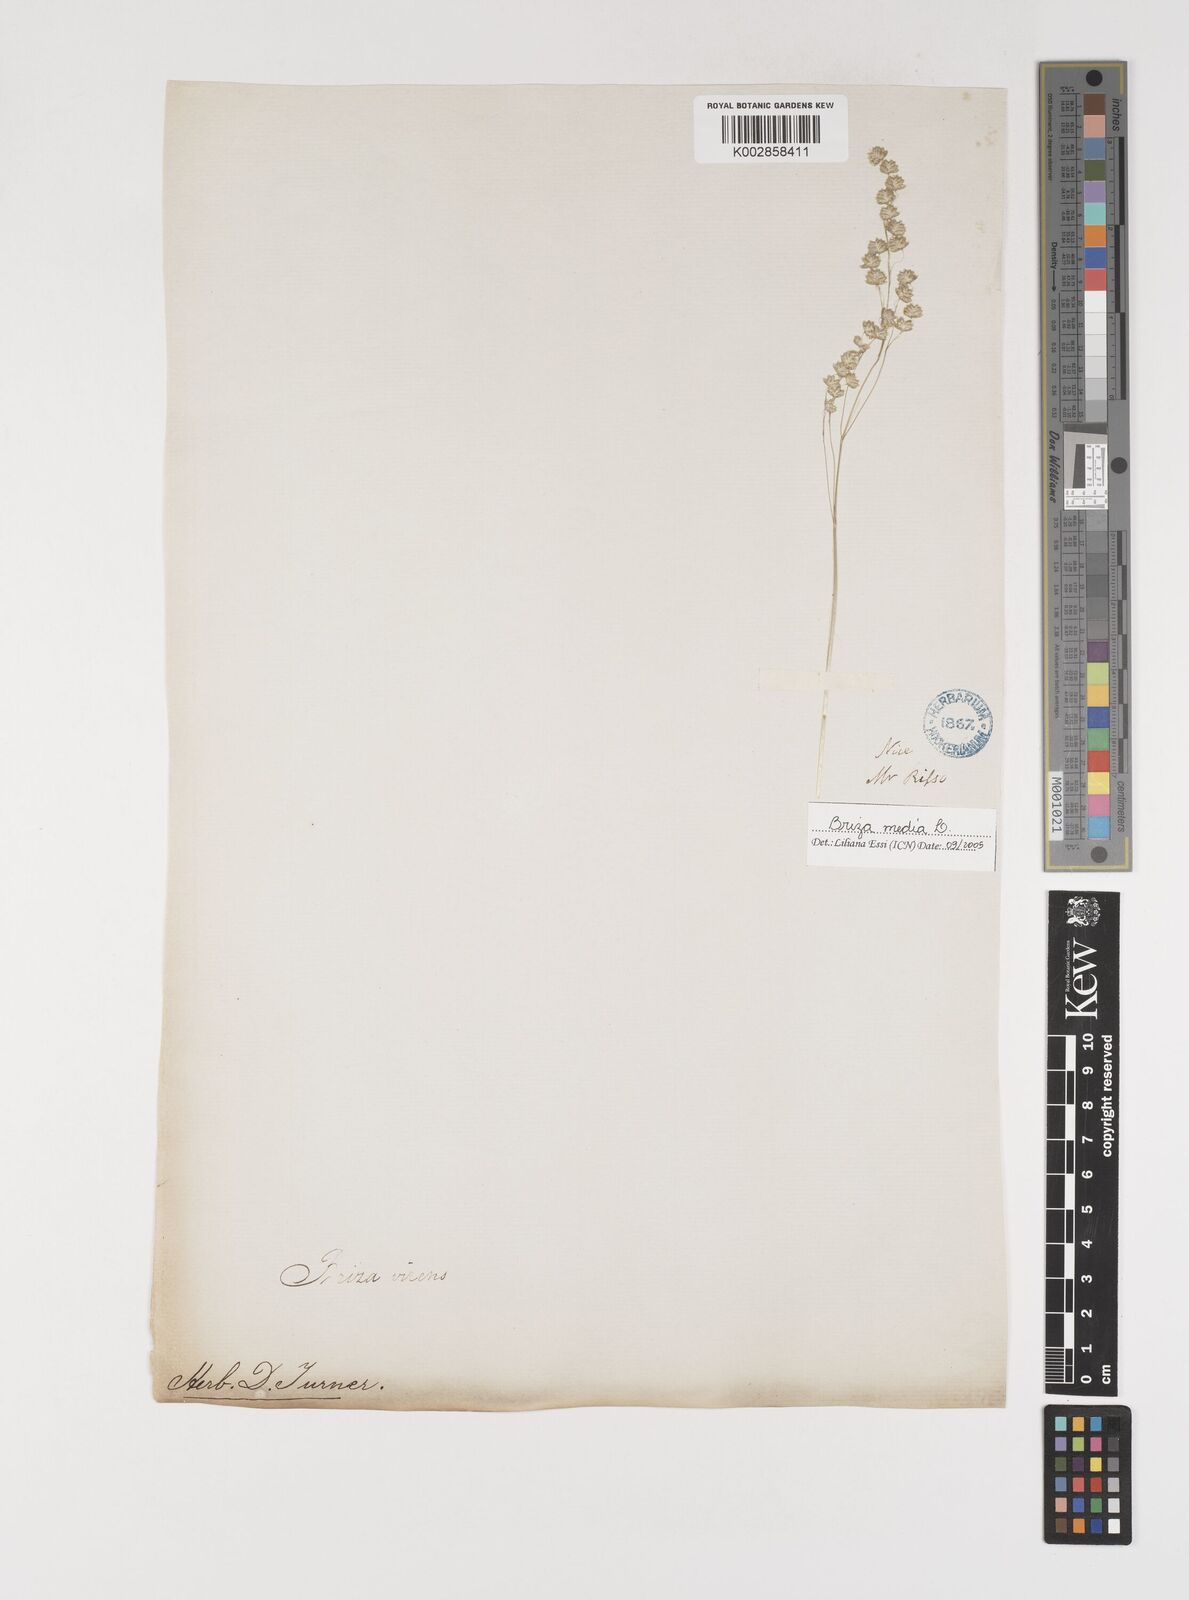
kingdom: Plantae
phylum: Tracheophyta
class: Liliopsida
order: Poales
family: Poaceae
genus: Briza
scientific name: Briza media
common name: Quaking grass
